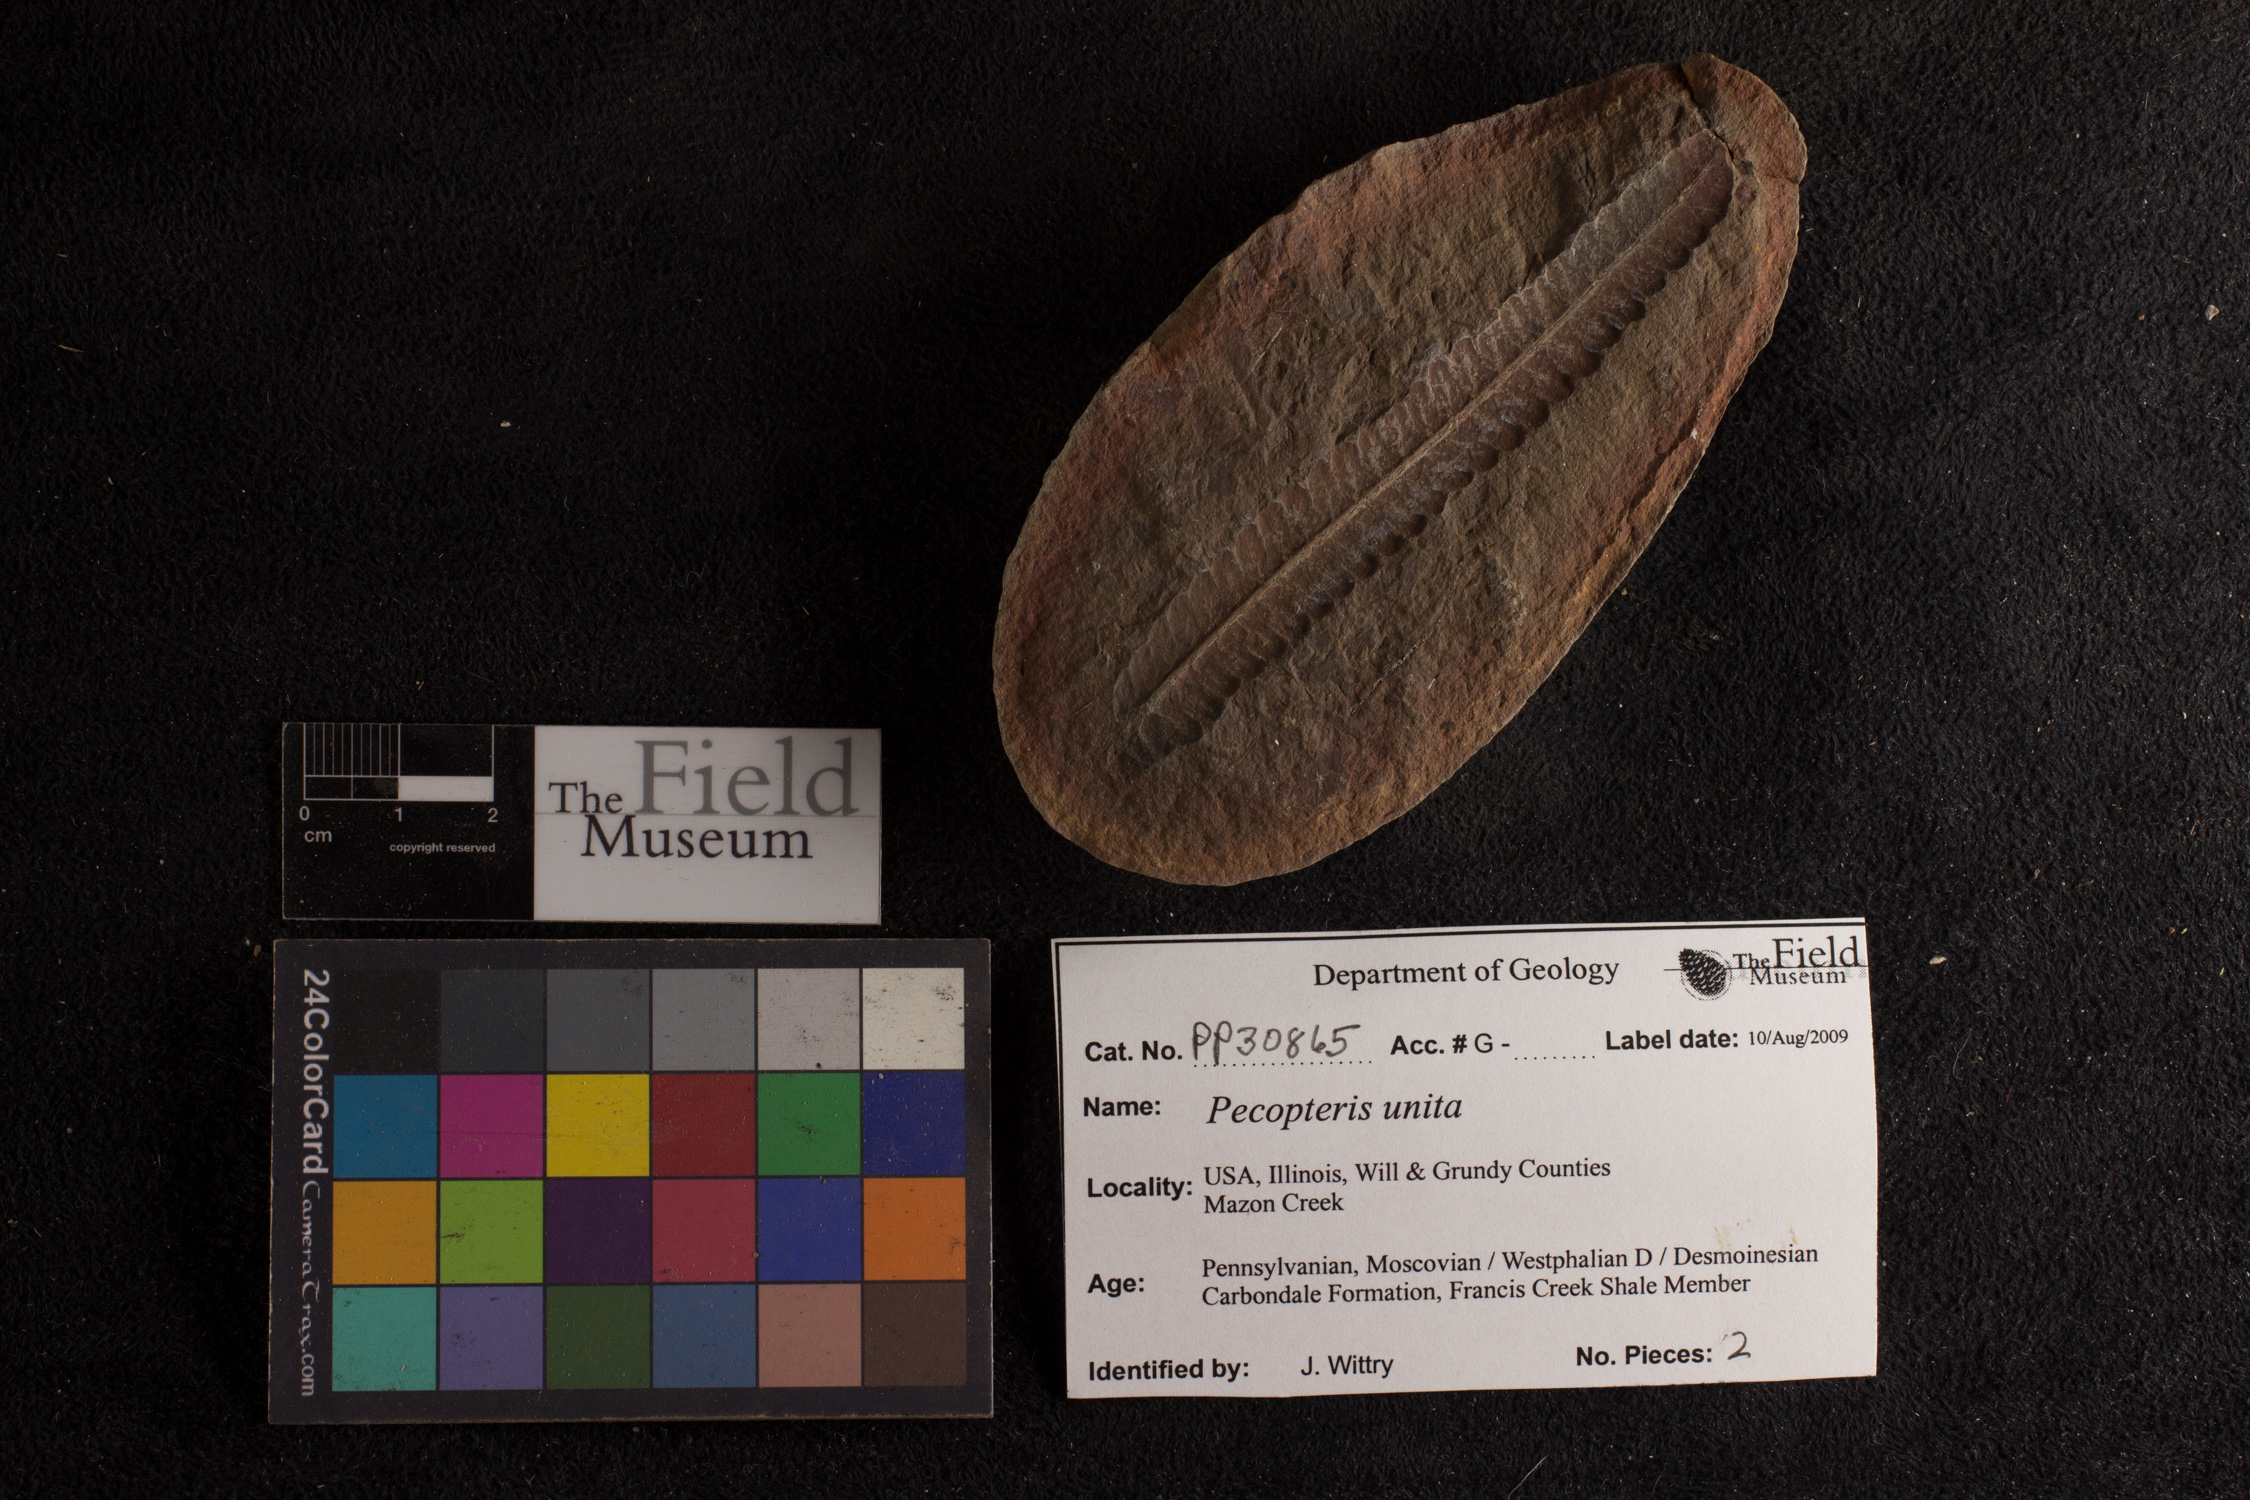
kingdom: Plantae
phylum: Tracheophyta
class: Polypodiopsida
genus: Diplazites
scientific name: Diplazites
